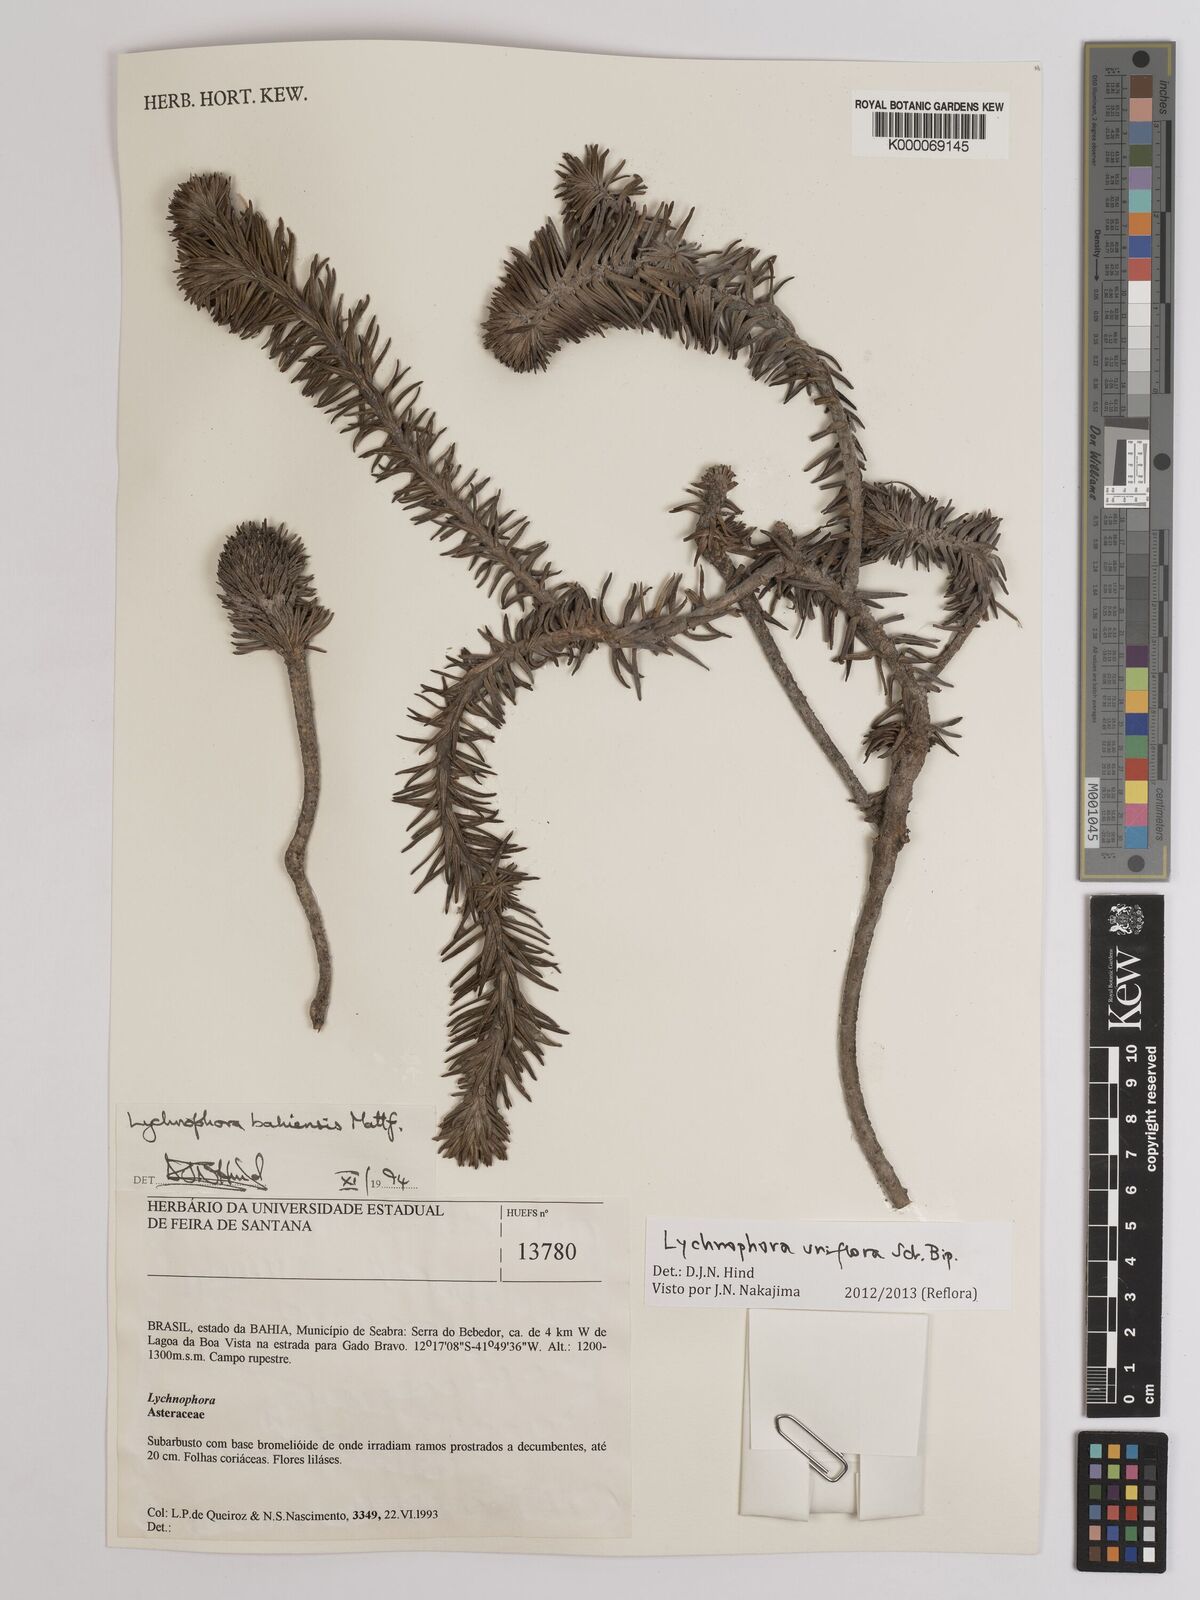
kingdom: Plantae
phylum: Tracheophyta
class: Magnoliopsida
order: Asterales
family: Asteraceae
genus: Lychnophora
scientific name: Lychnophora uniflora
